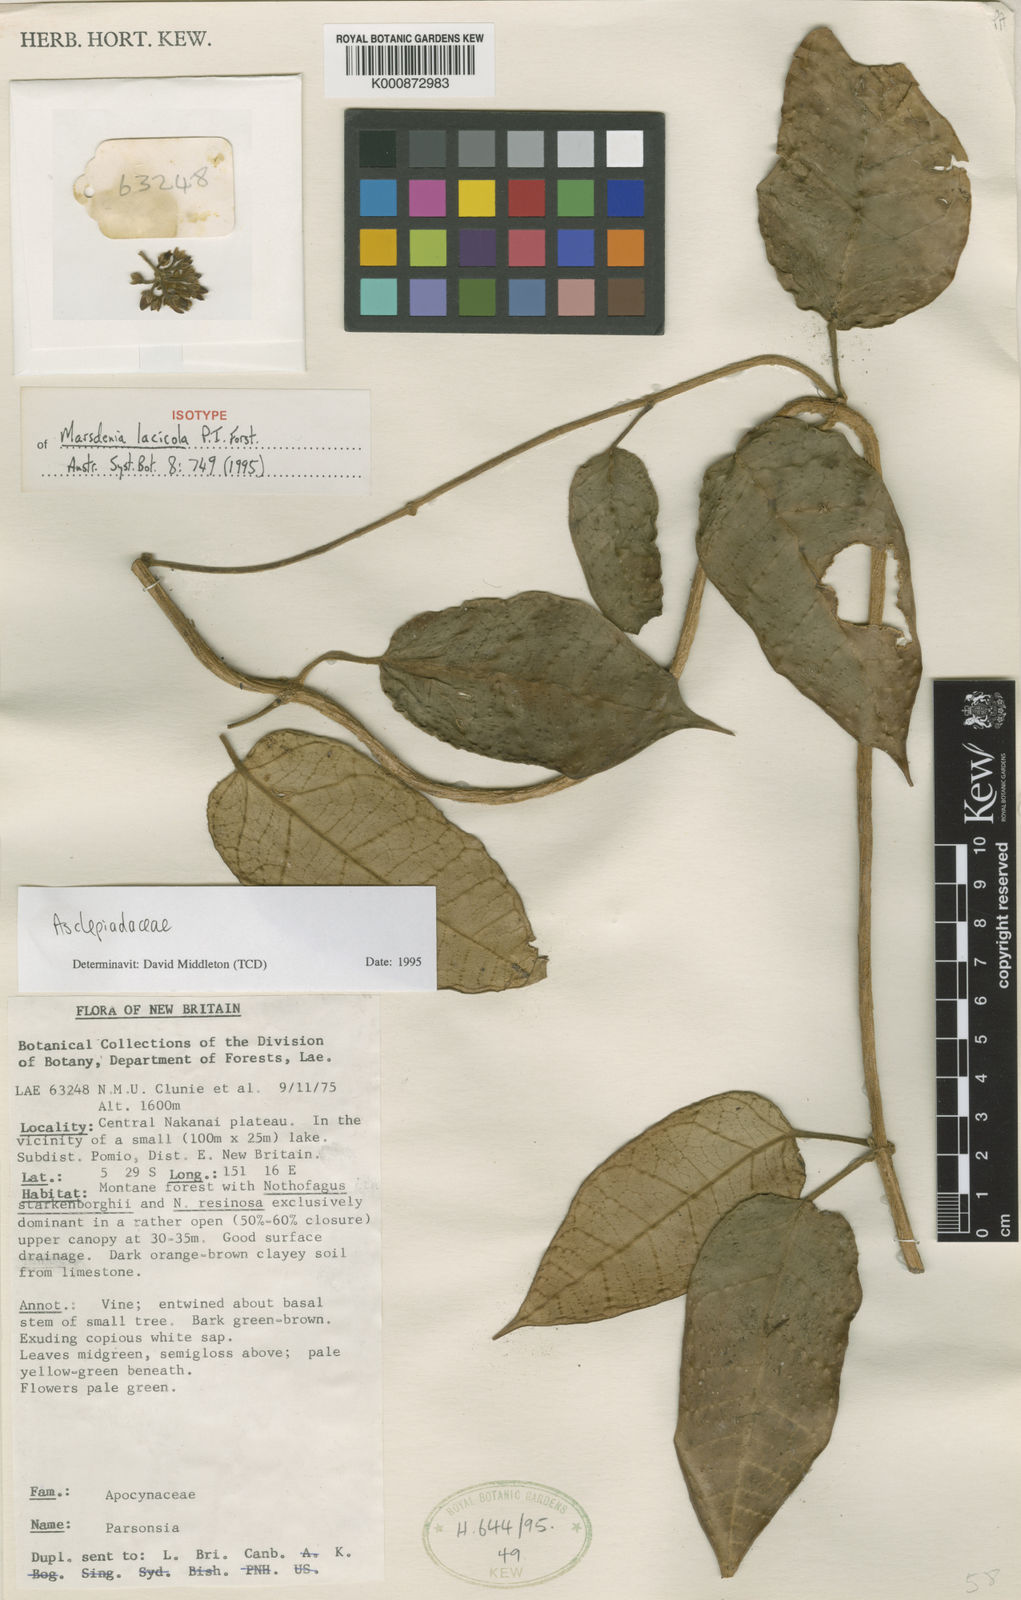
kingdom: Plantae
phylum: Tracheophyta
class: Magnoliopsida
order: Gentianales
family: Apocynaceae
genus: Leichhardtia
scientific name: Leichhardtia lacicola
